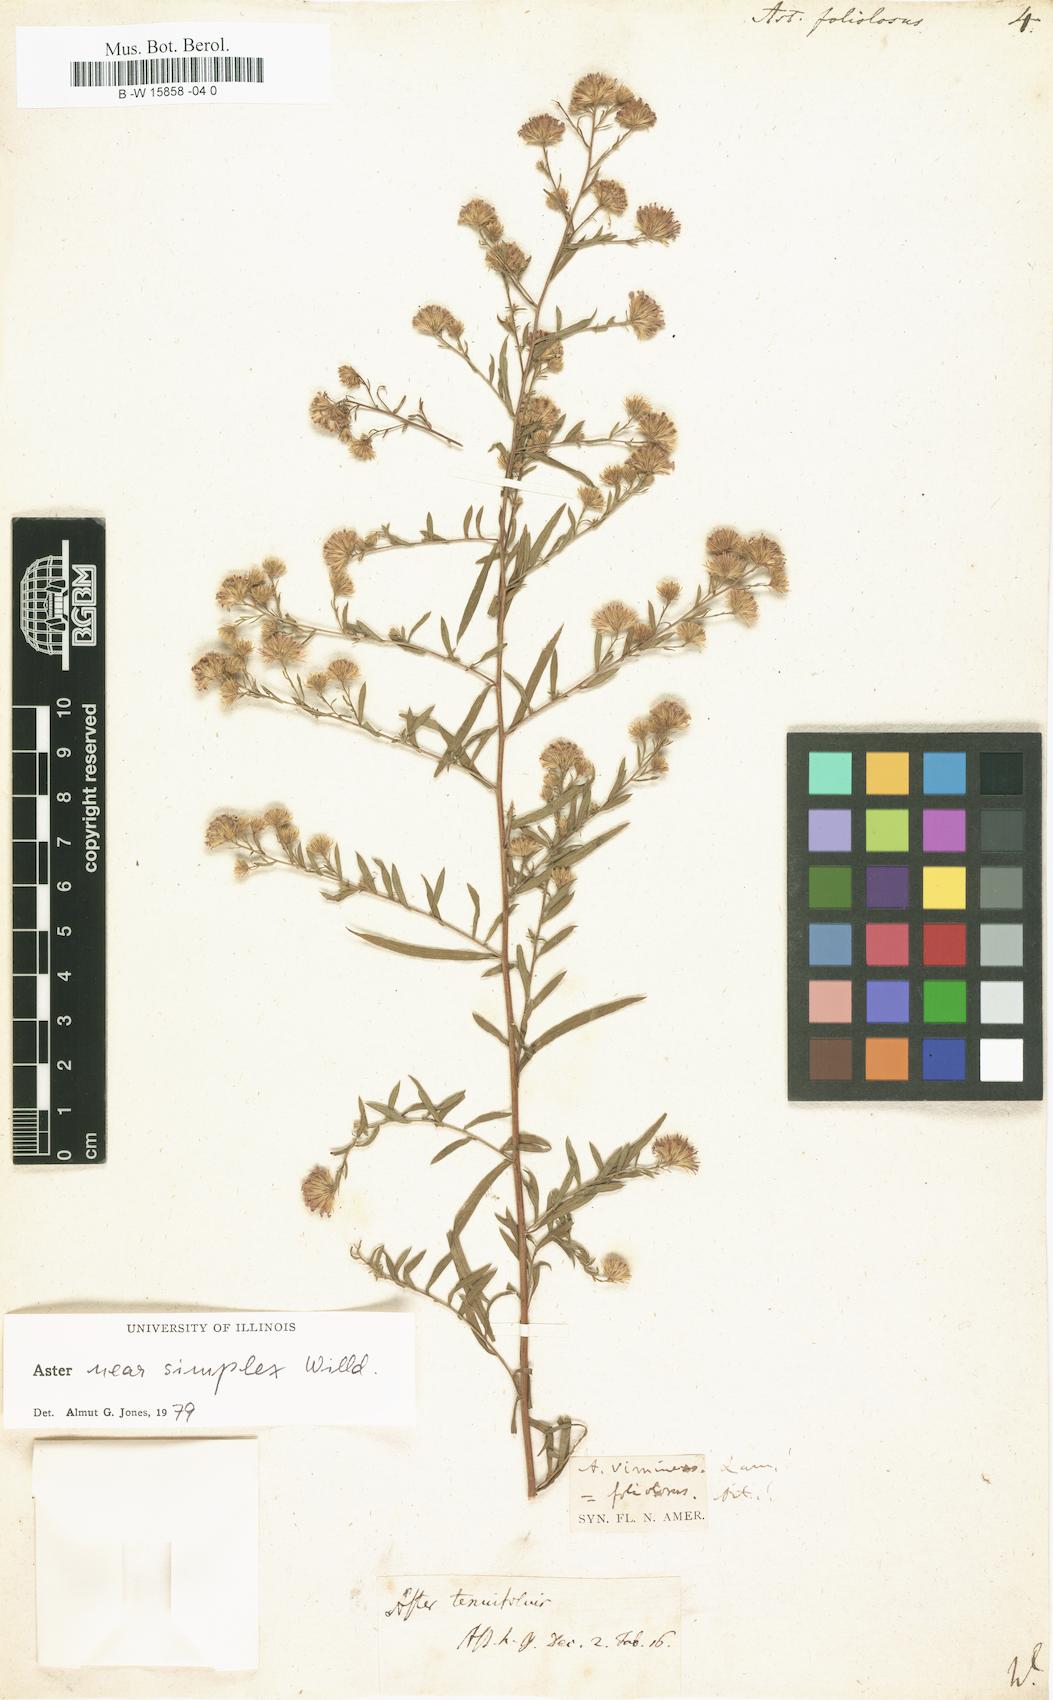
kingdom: Plantae
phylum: Tracheophyta
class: Magnoliopsida
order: Asterales
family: Asteraceae
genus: Symphyotrichum
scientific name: Symphyotrichum racemosum
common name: Small white aster
